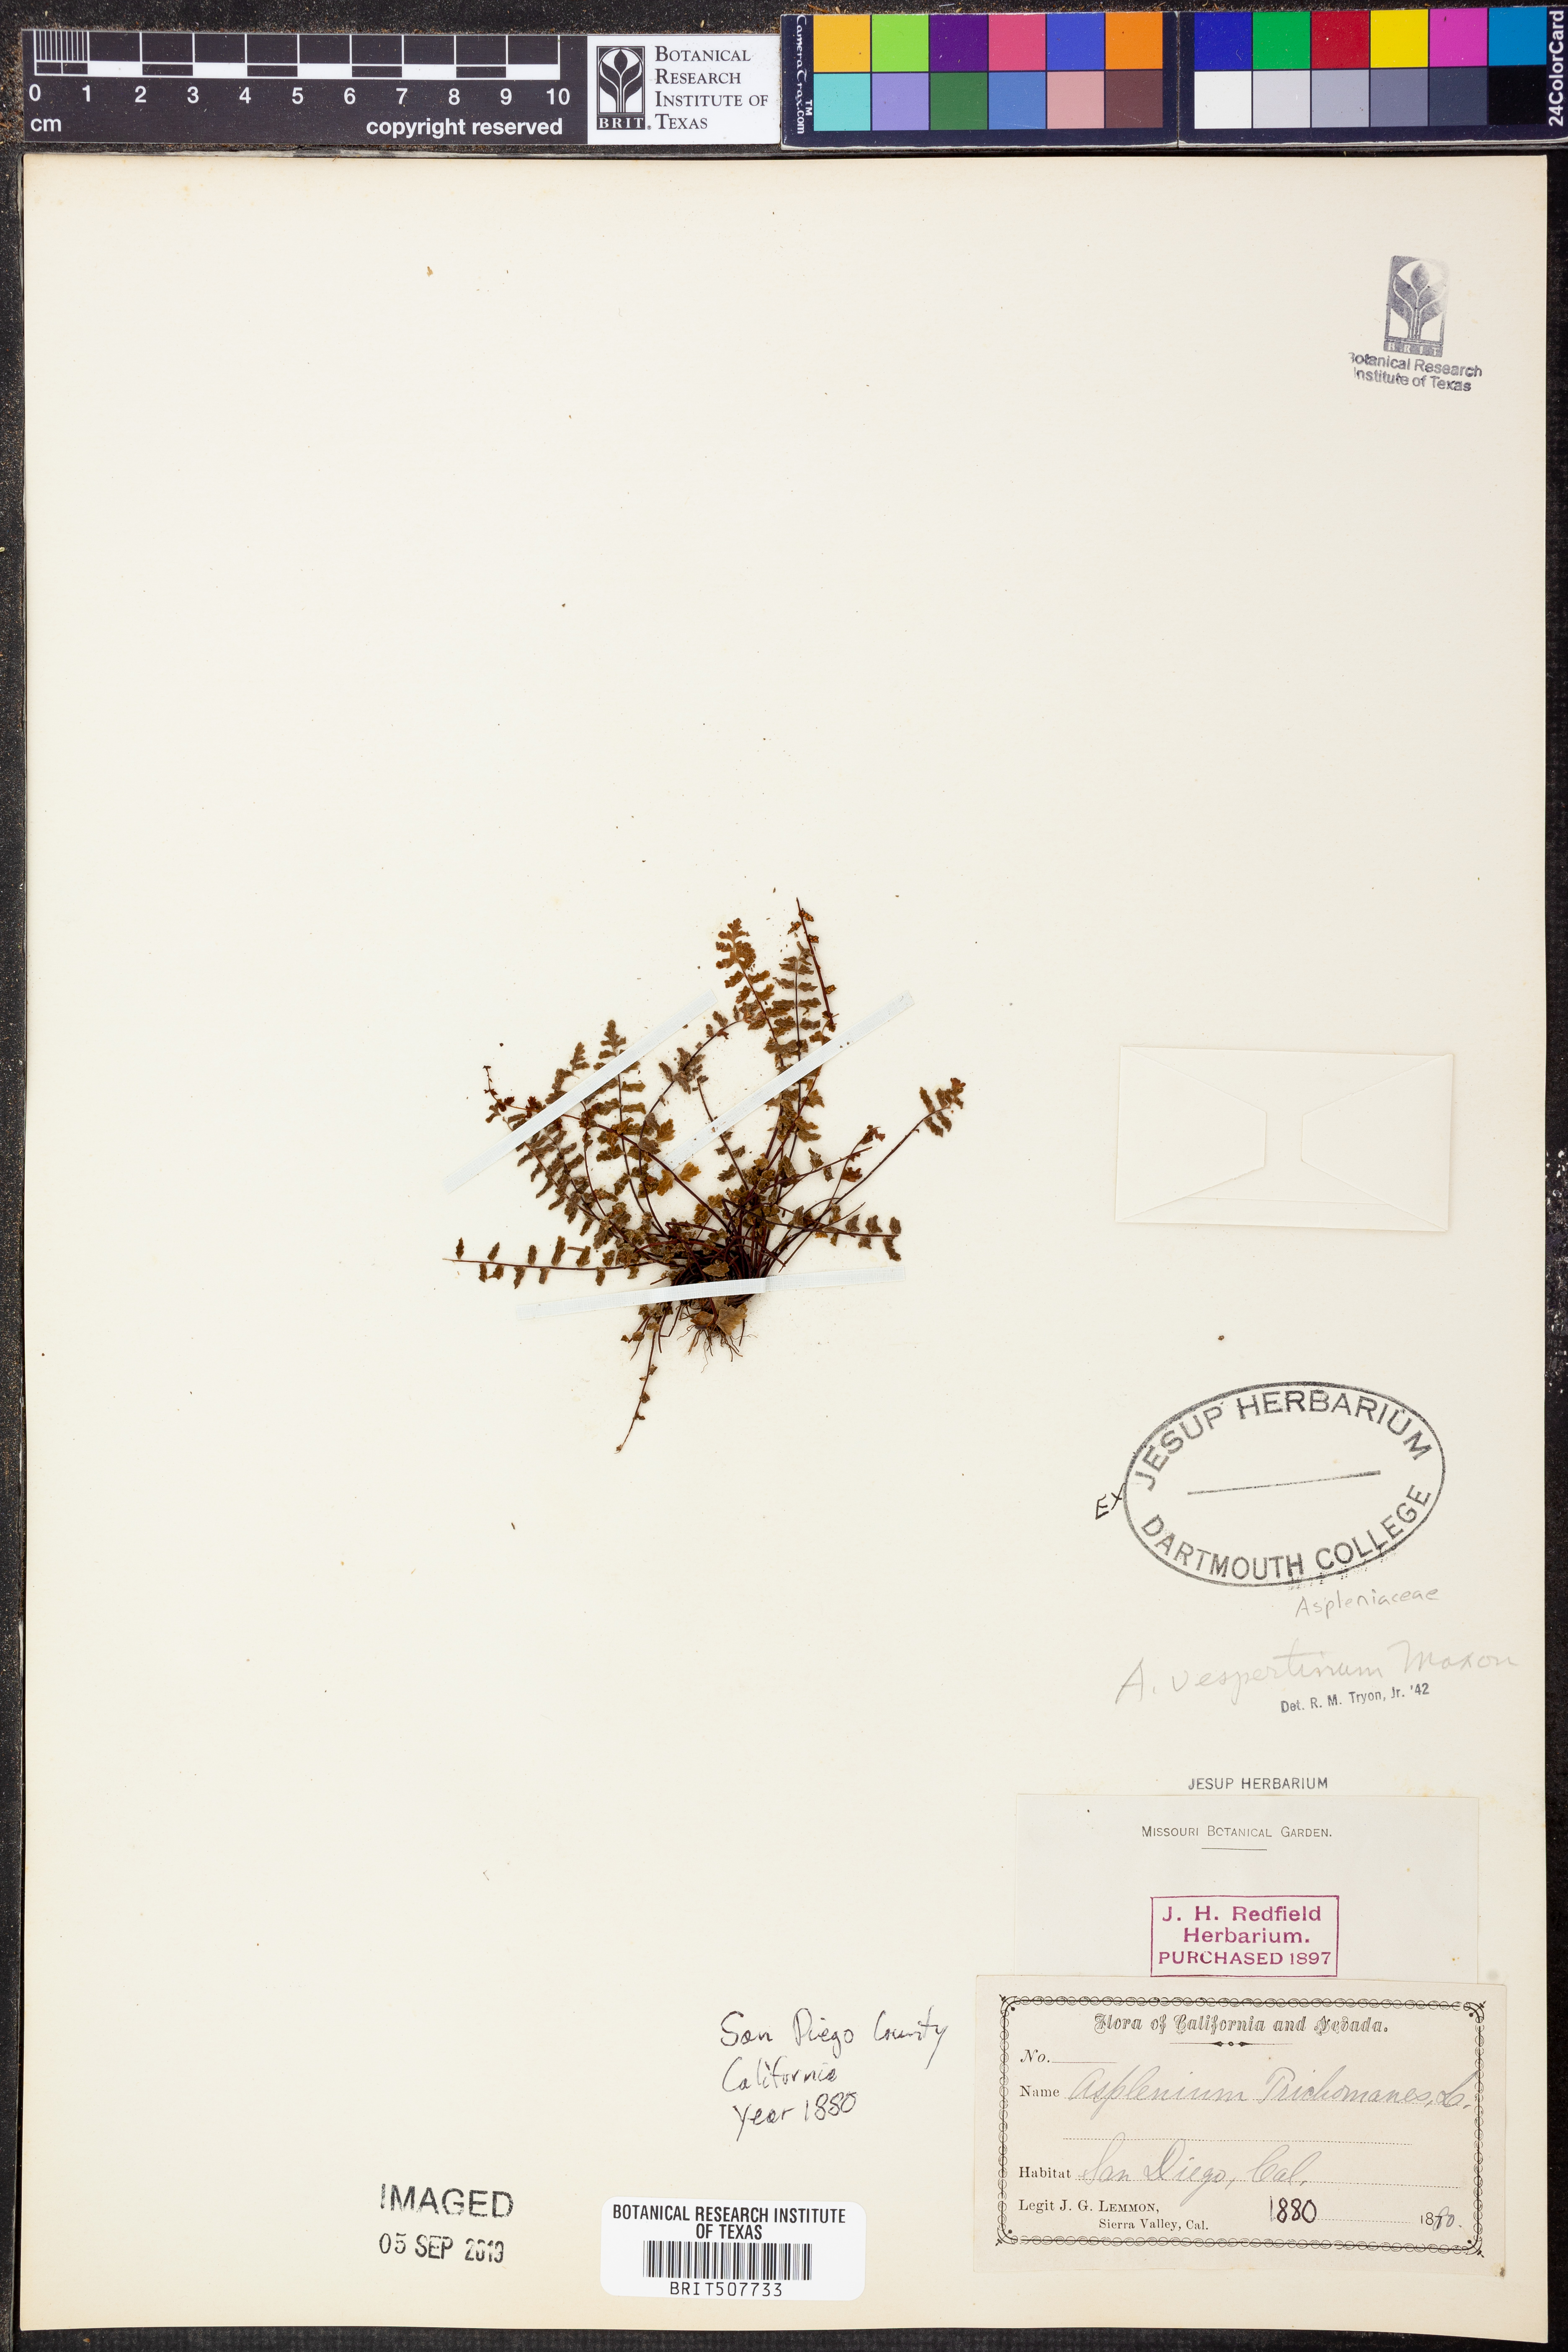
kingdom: Plantae
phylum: Tracheophyta
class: Polypodiopsida
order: Polypodiales
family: Aspleniaceae
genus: Asplenium
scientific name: Asplenium vespertinum
